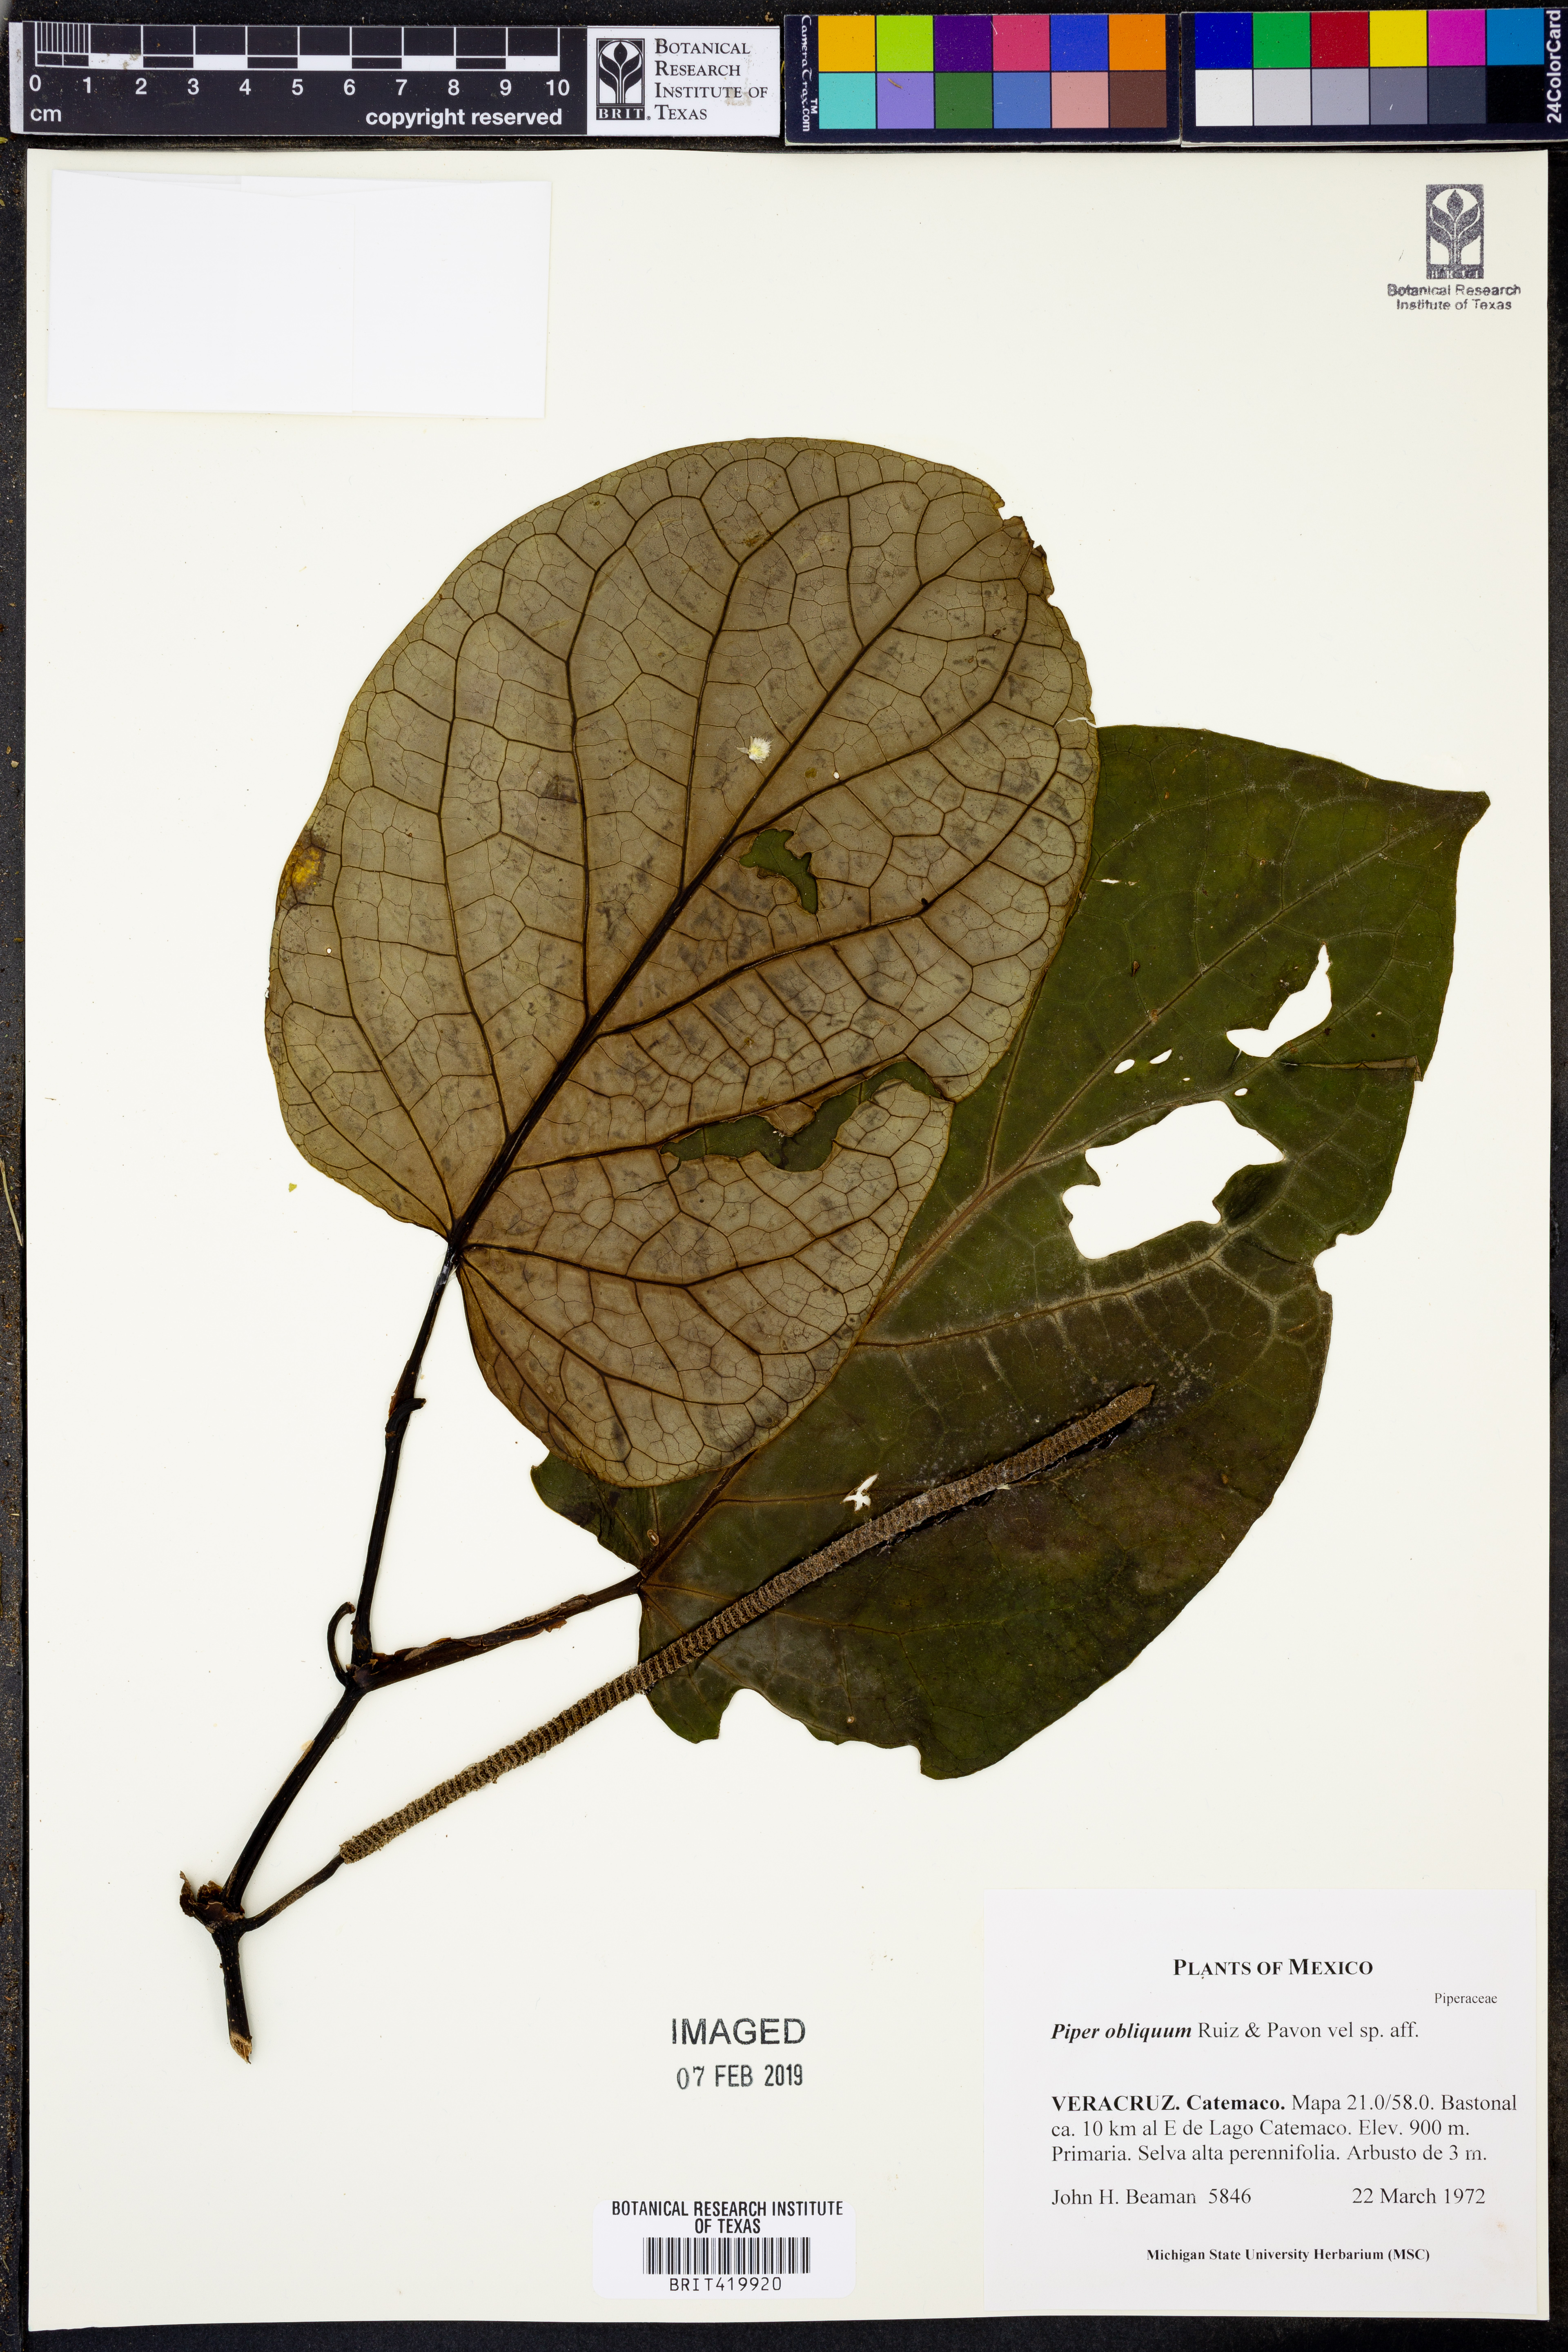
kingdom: Plantae
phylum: Tracheophyta
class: Magnoliopsida
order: Piperales
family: Piperaceae
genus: Piper
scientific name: Piper obliquum
